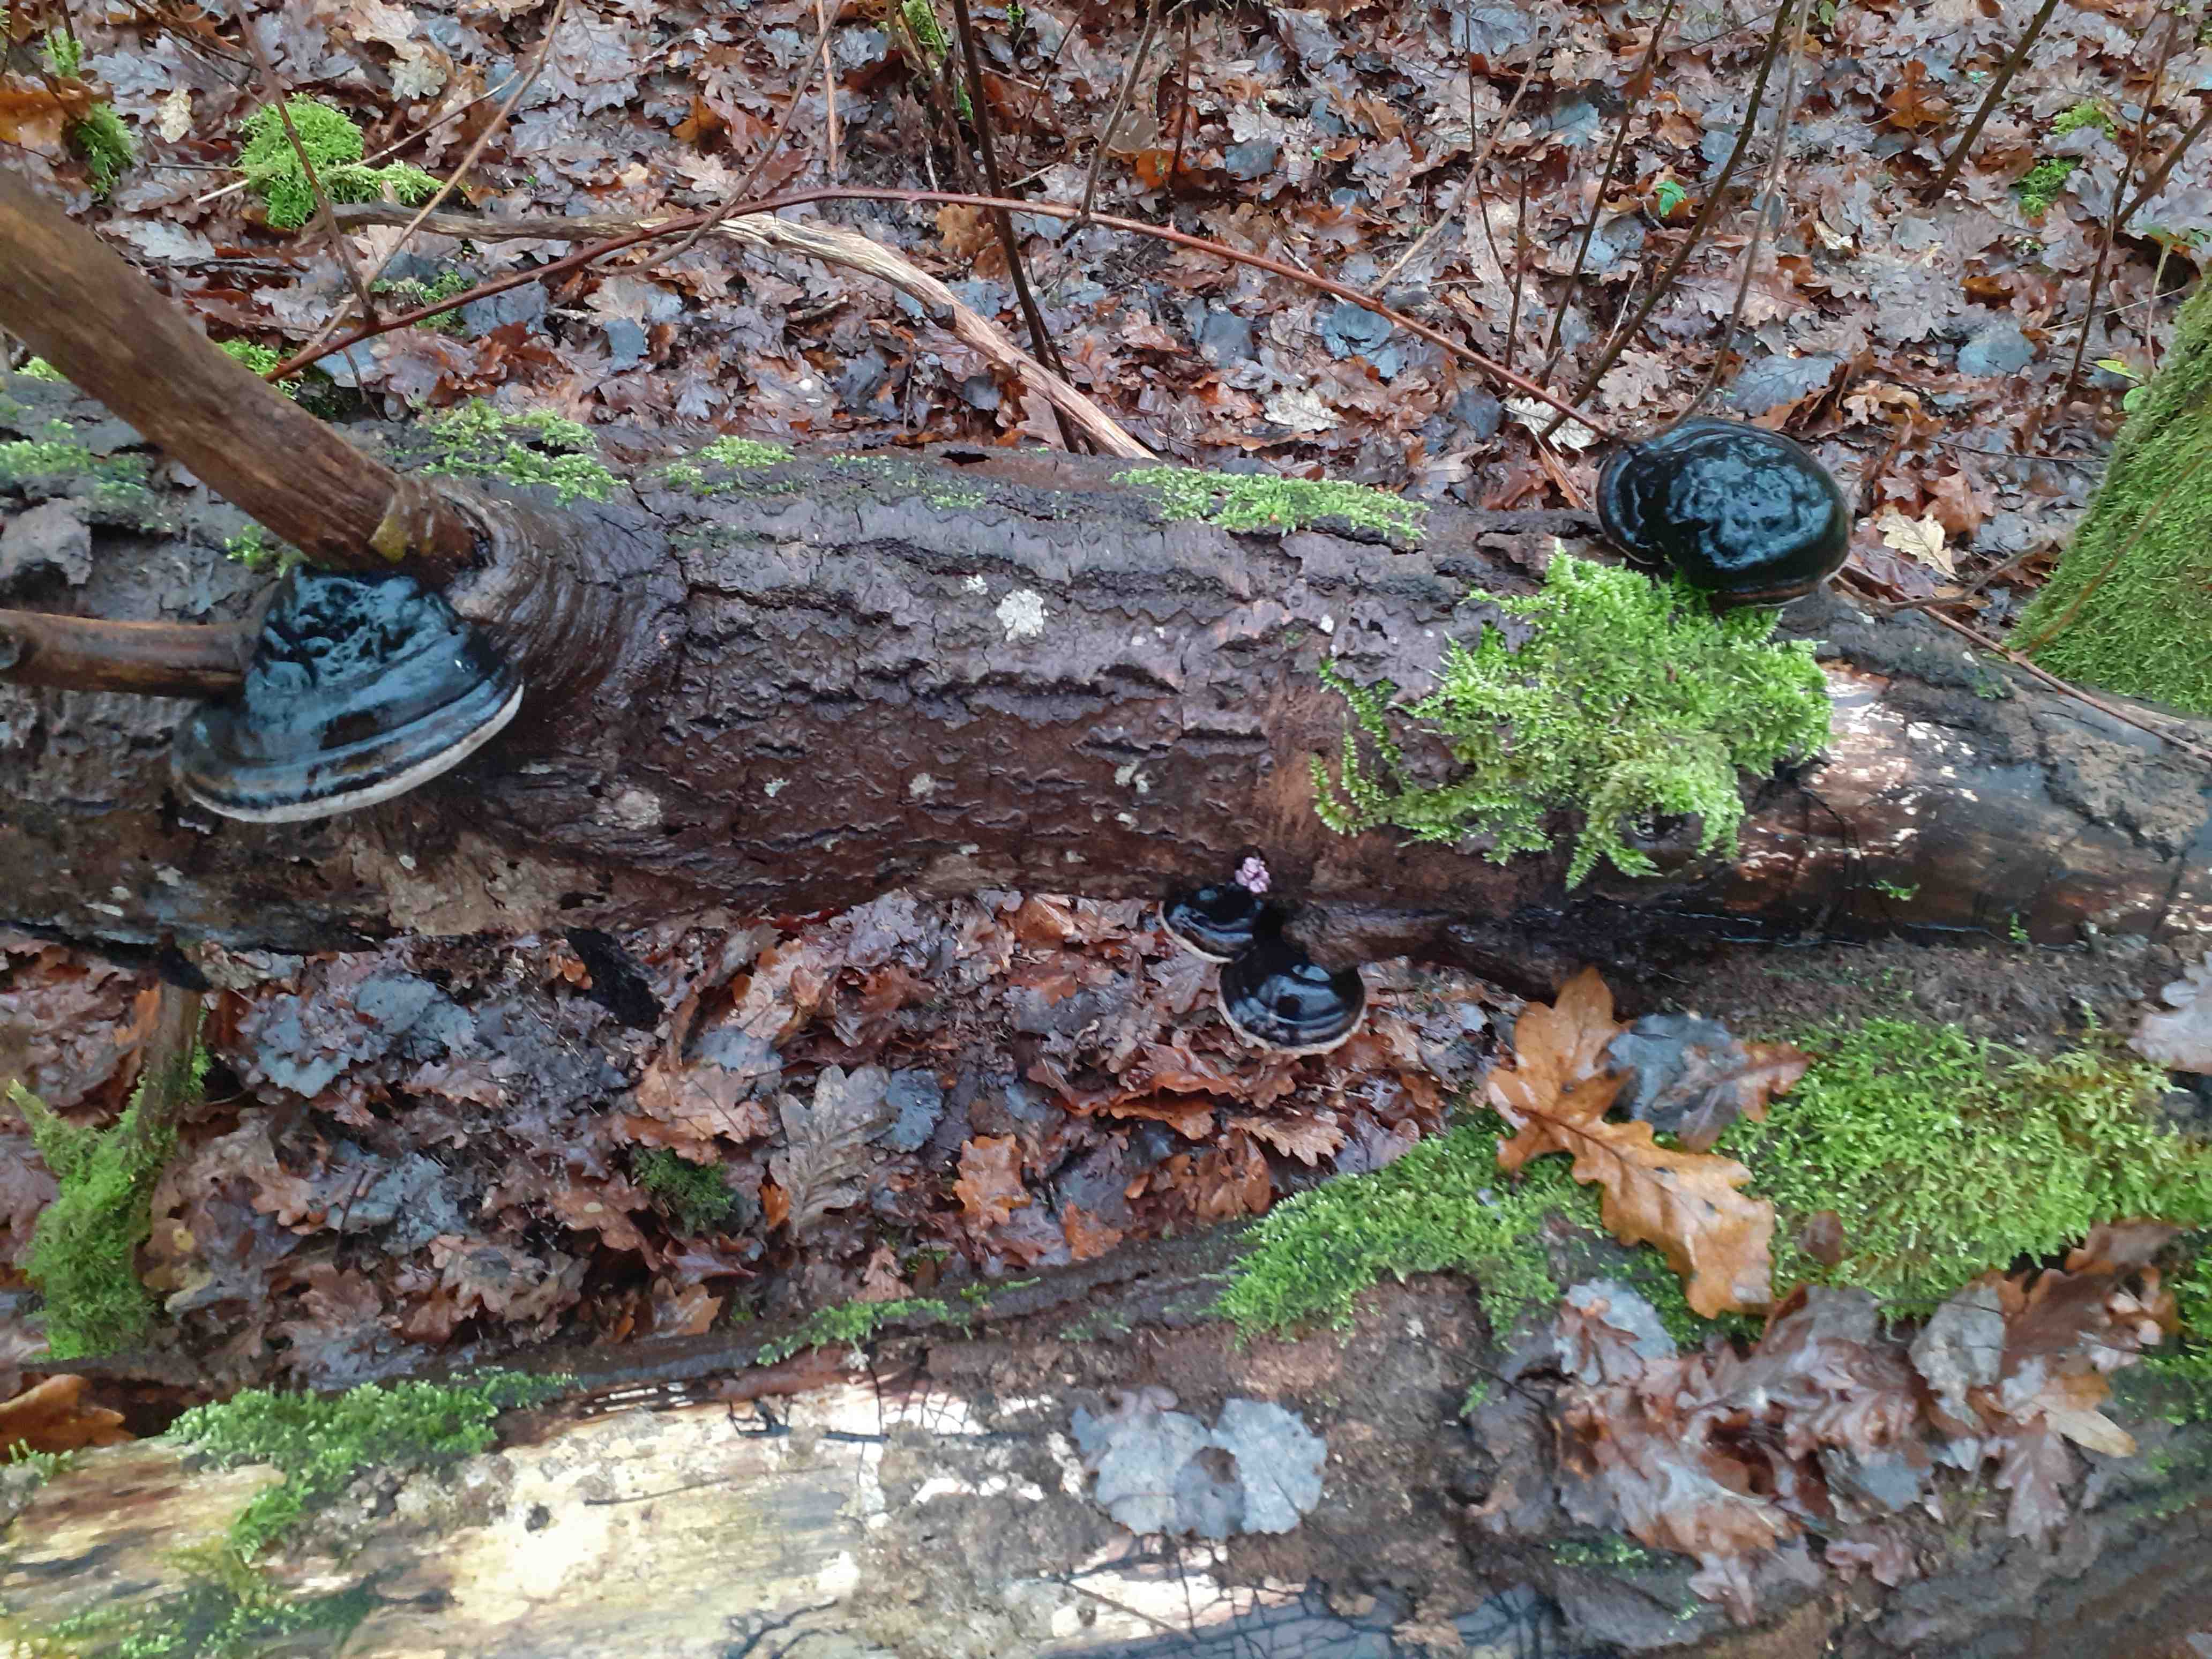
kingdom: Fungi
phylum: Basidiomycota
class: Agaricomycetes
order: Hymenochaetales
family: Hymenochaetaceae
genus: Phellinus
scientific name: Phellinus populicola
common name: poppel-ildporesvamp
